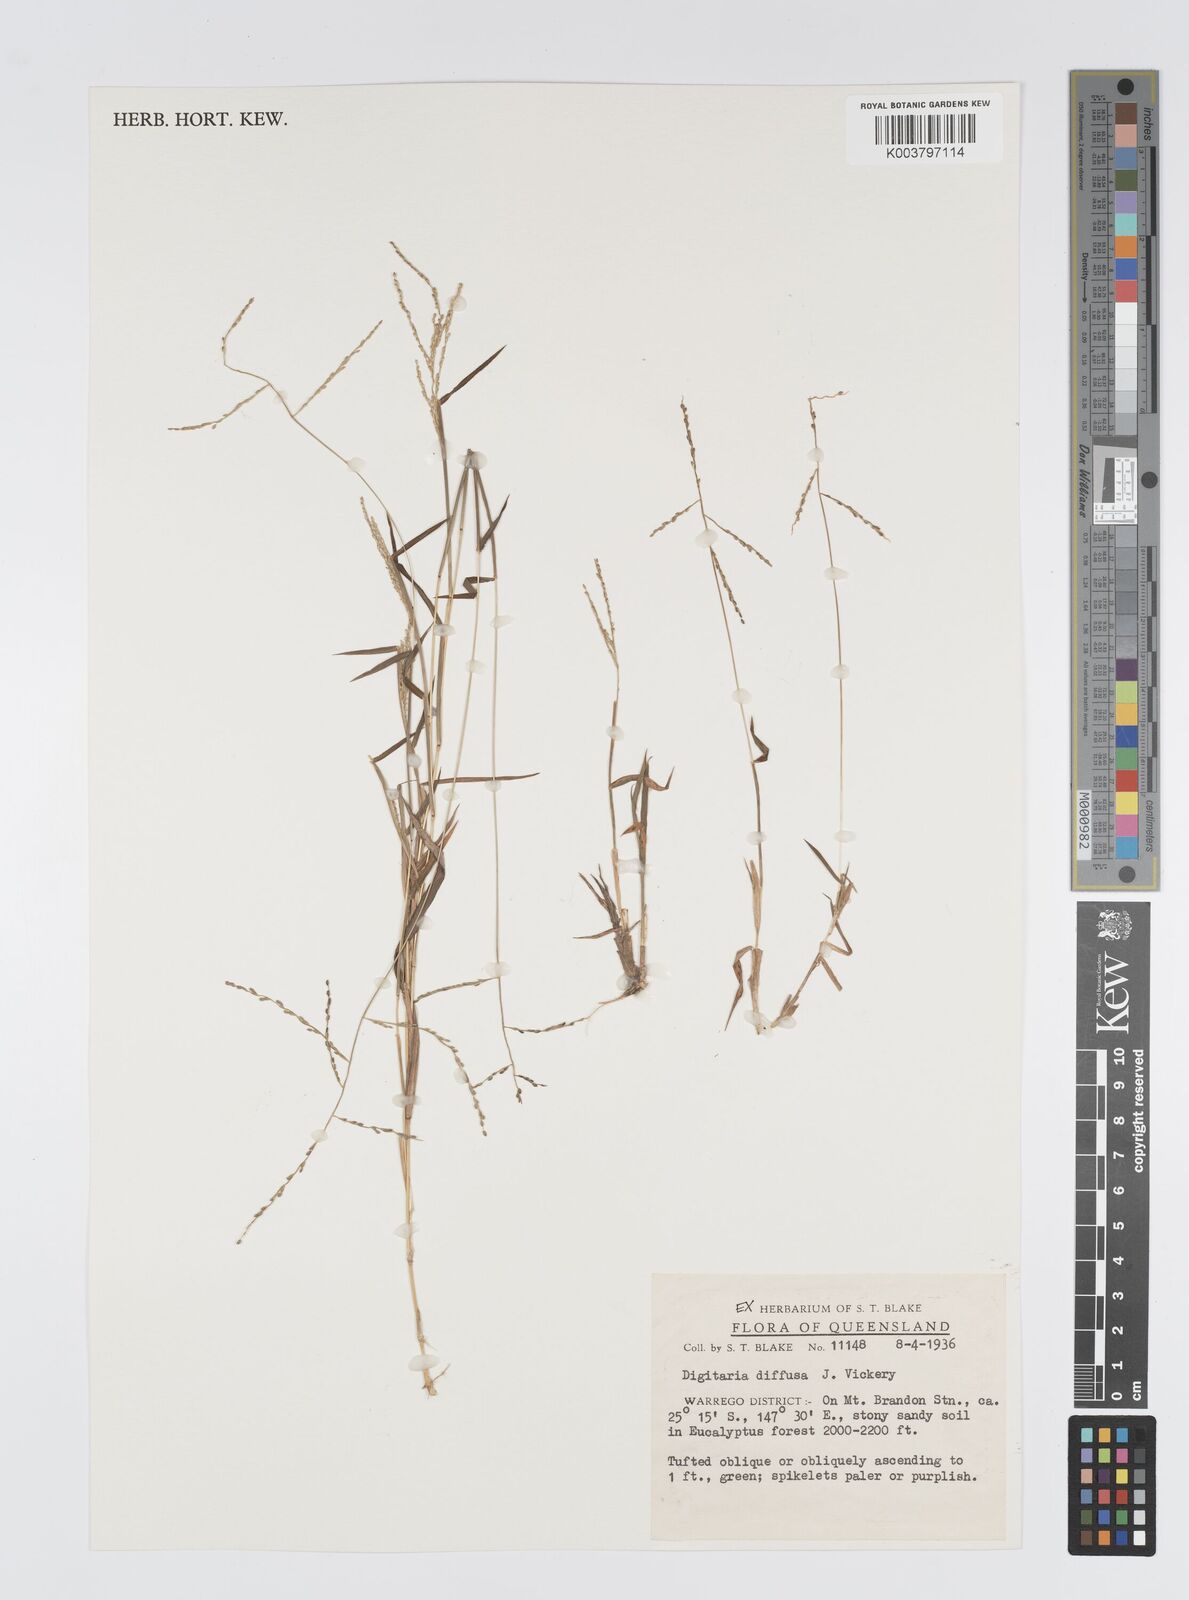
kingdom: Plantae
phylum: Tracheophyta
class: Liliopsida
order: Poales
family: Poaceae
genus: Digitaria
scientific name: Digitaria diffusa
